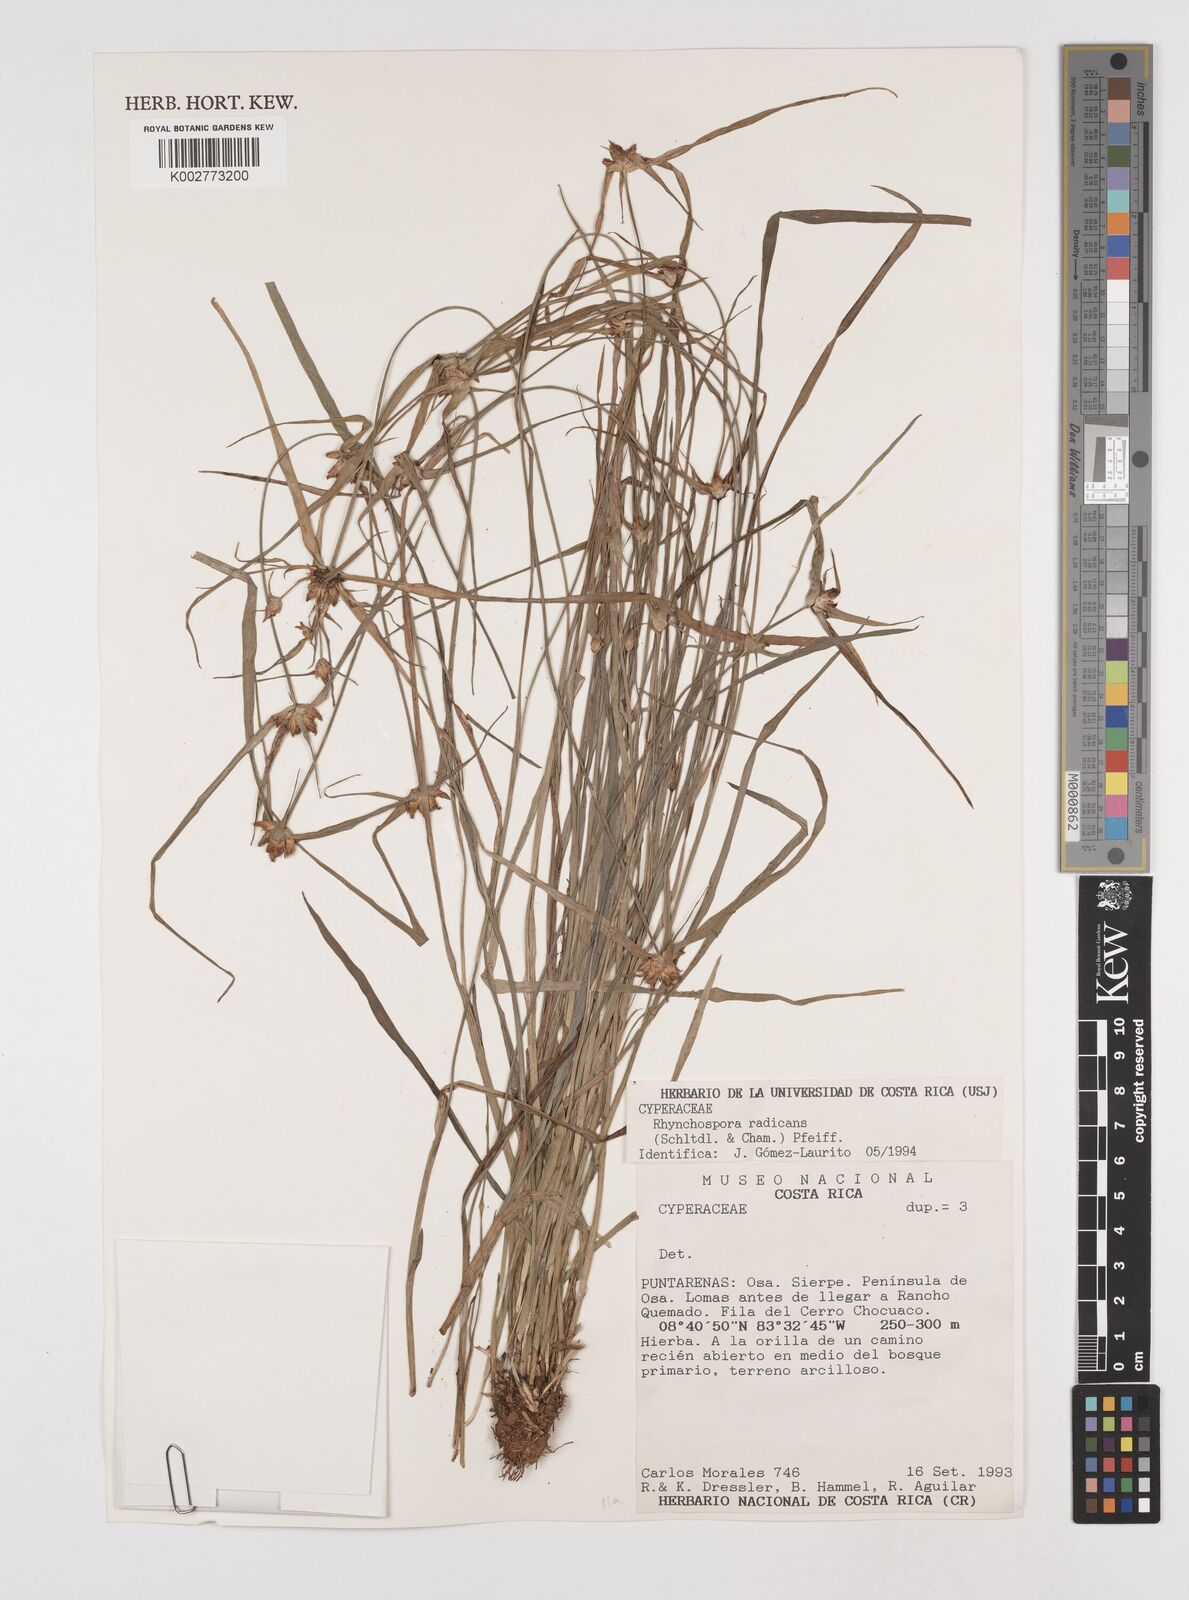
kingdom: Plantae
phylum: Tracheophyta
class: Liliopsida
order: Poales
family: Cyperaceae
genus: Rhynchospora
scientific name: Rhynchospora radicans
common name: Tropical whitetop
